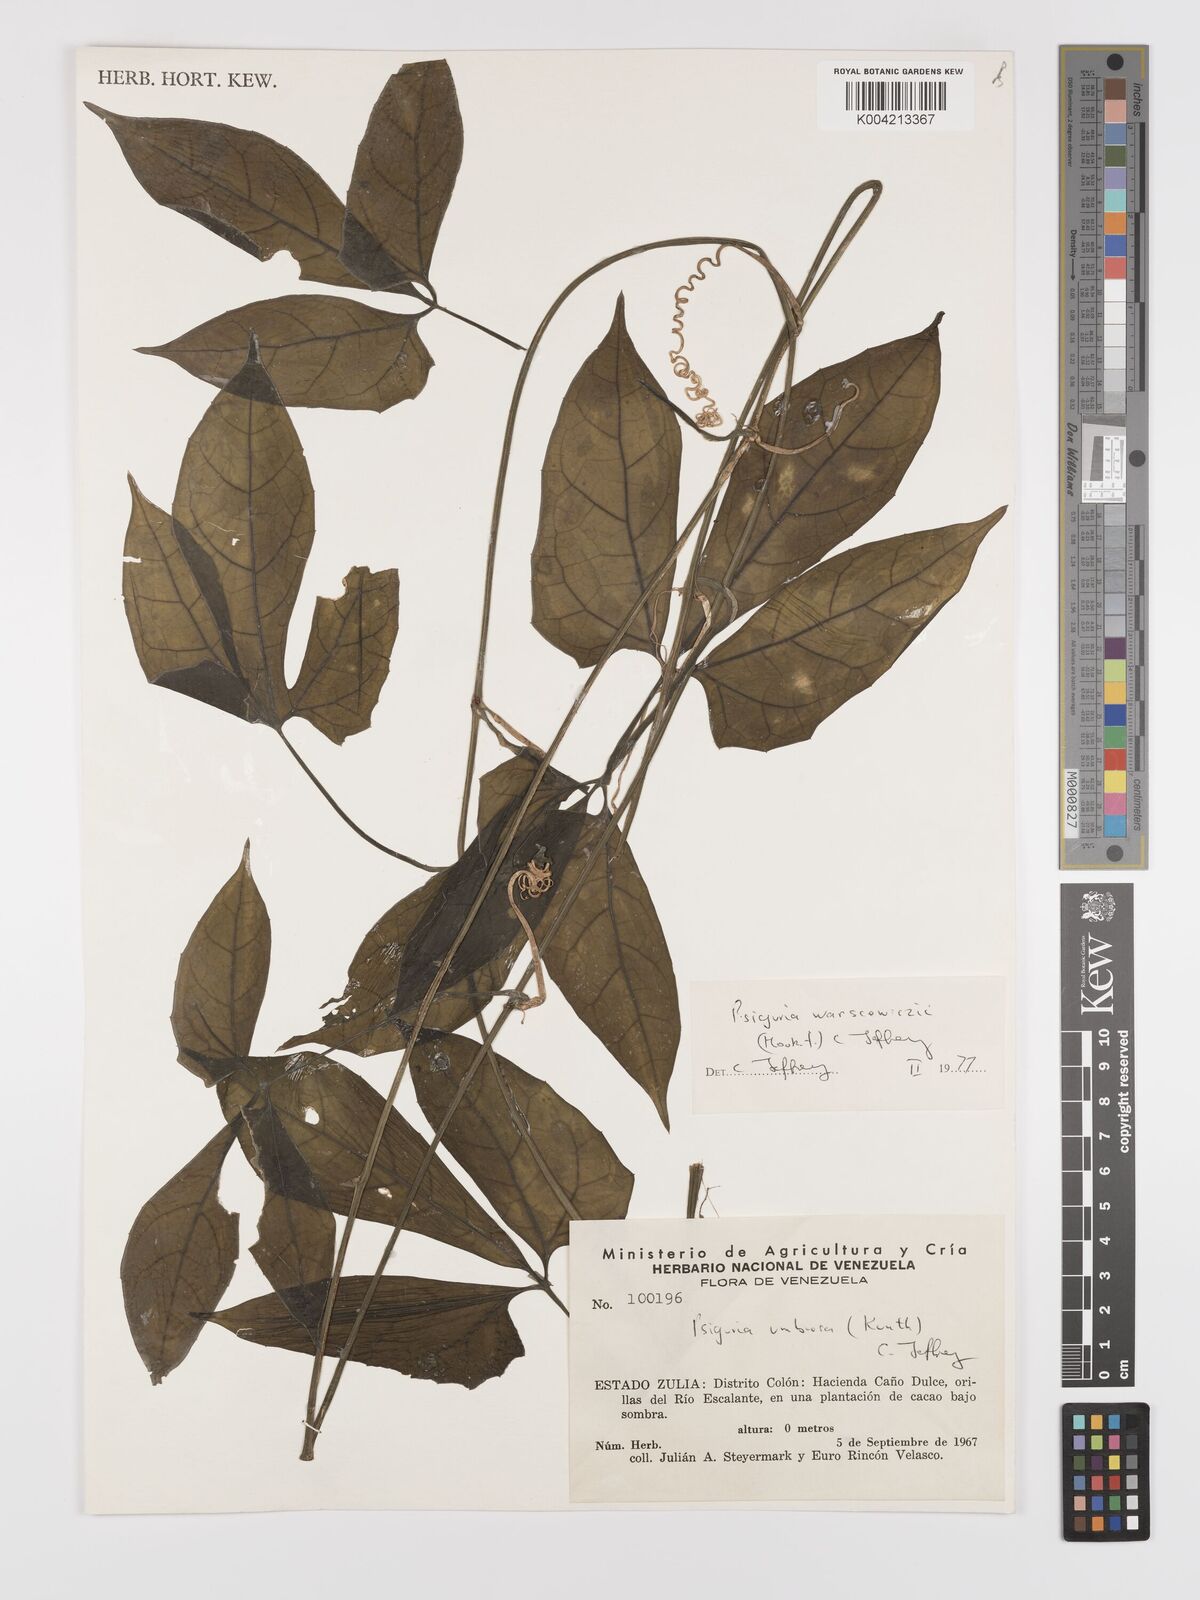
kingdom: Plantae
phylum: Tracheophyta
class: Magnoliopsida
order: Cucurbitales
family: Cucurbitaceae
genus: Psiguria
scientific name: Psiguria warscewiczii
